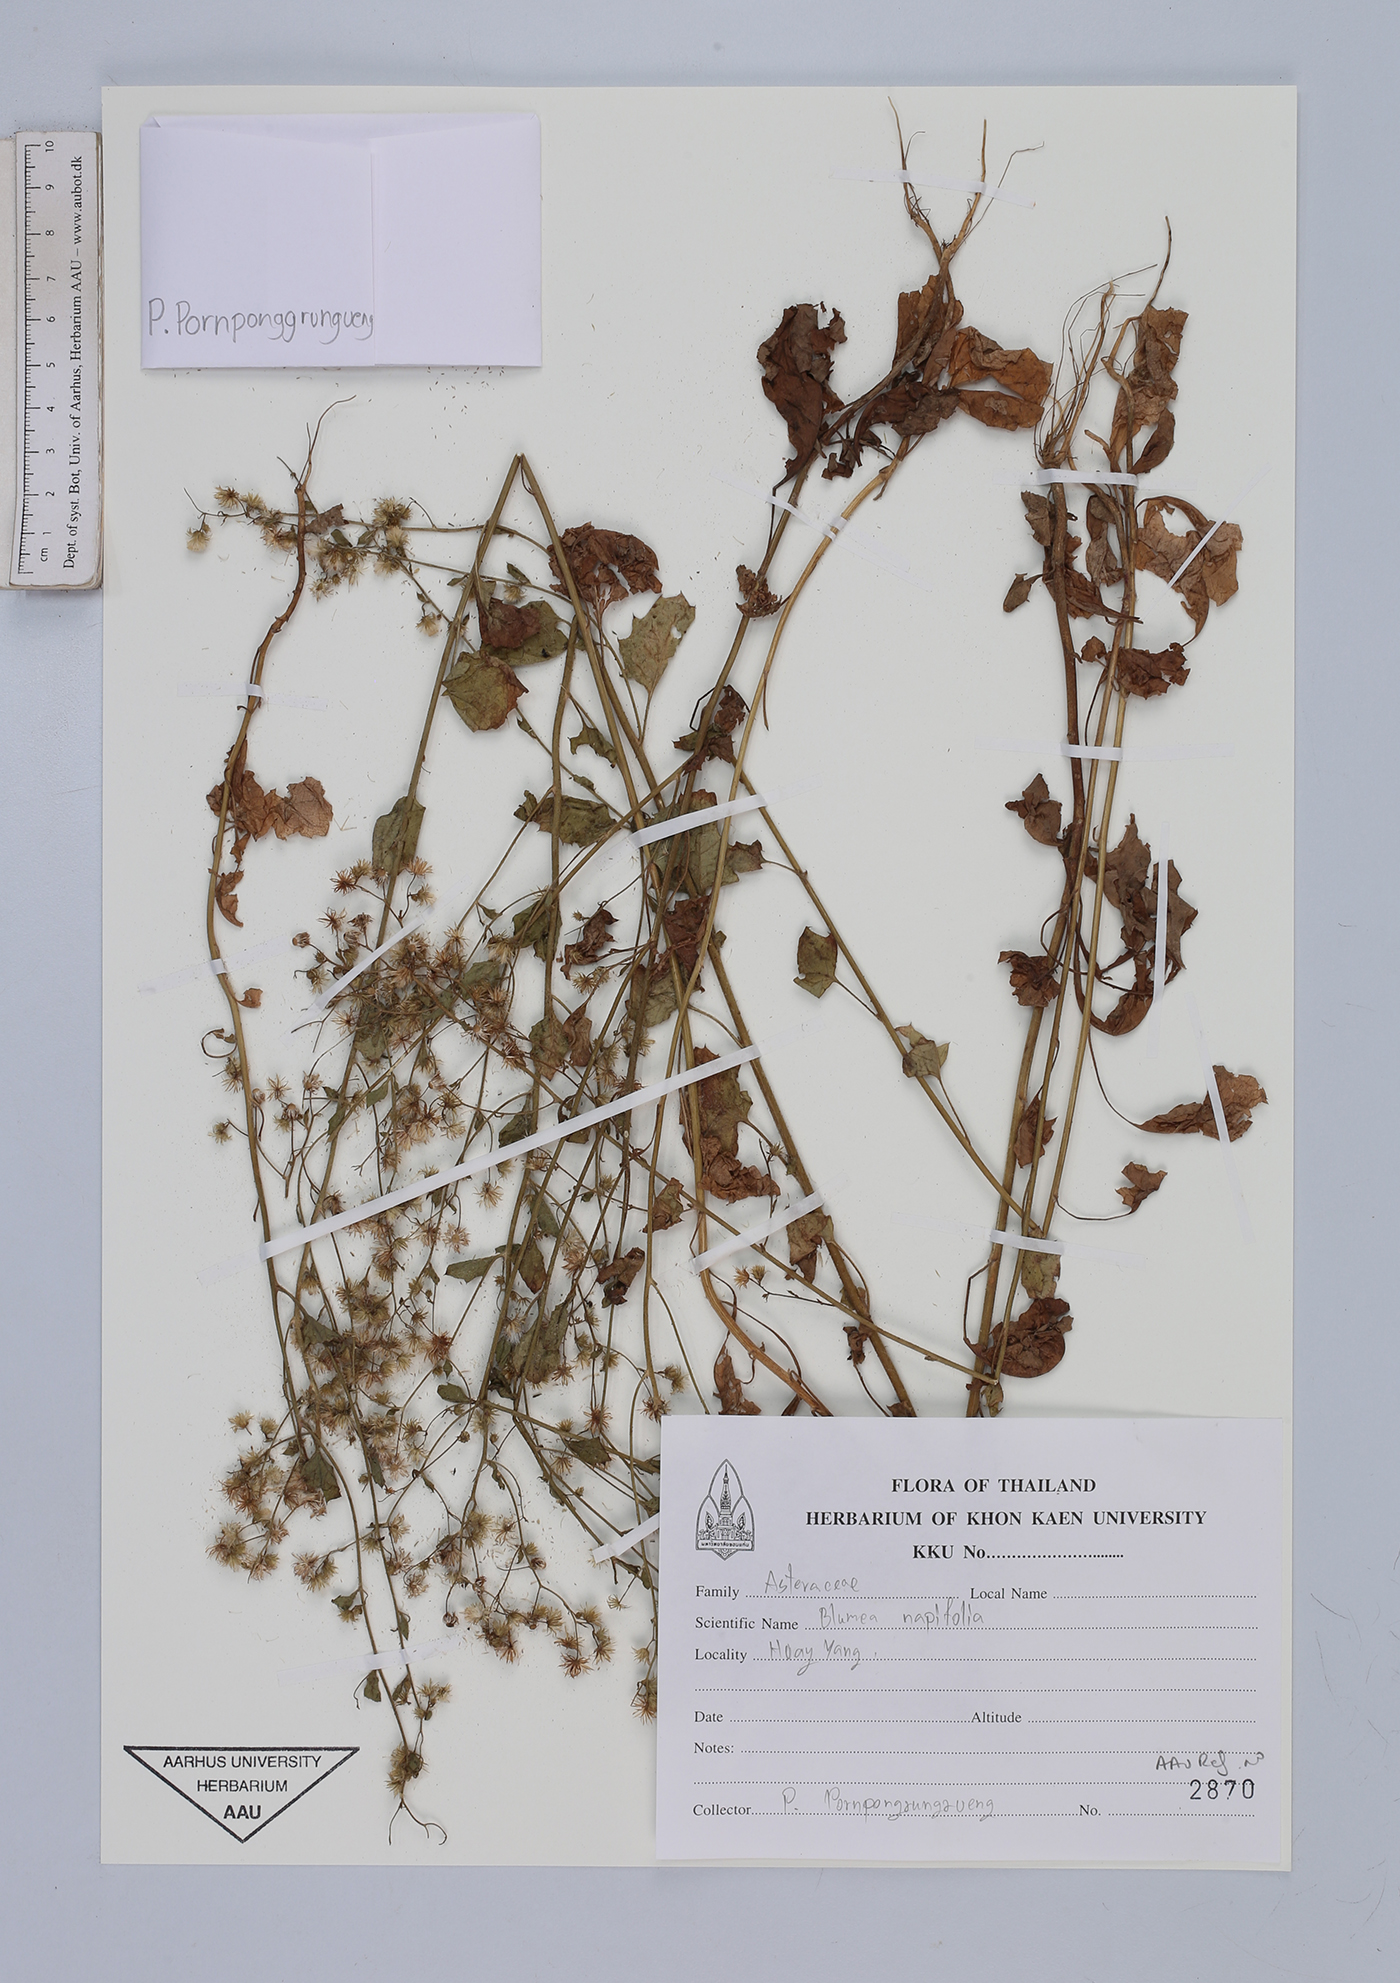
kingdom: Plantae
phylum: Tracheophyta
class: Magnoliopsida
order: Asterales
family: Asteraceae
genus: Blumea
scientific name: Blumea napifolia
